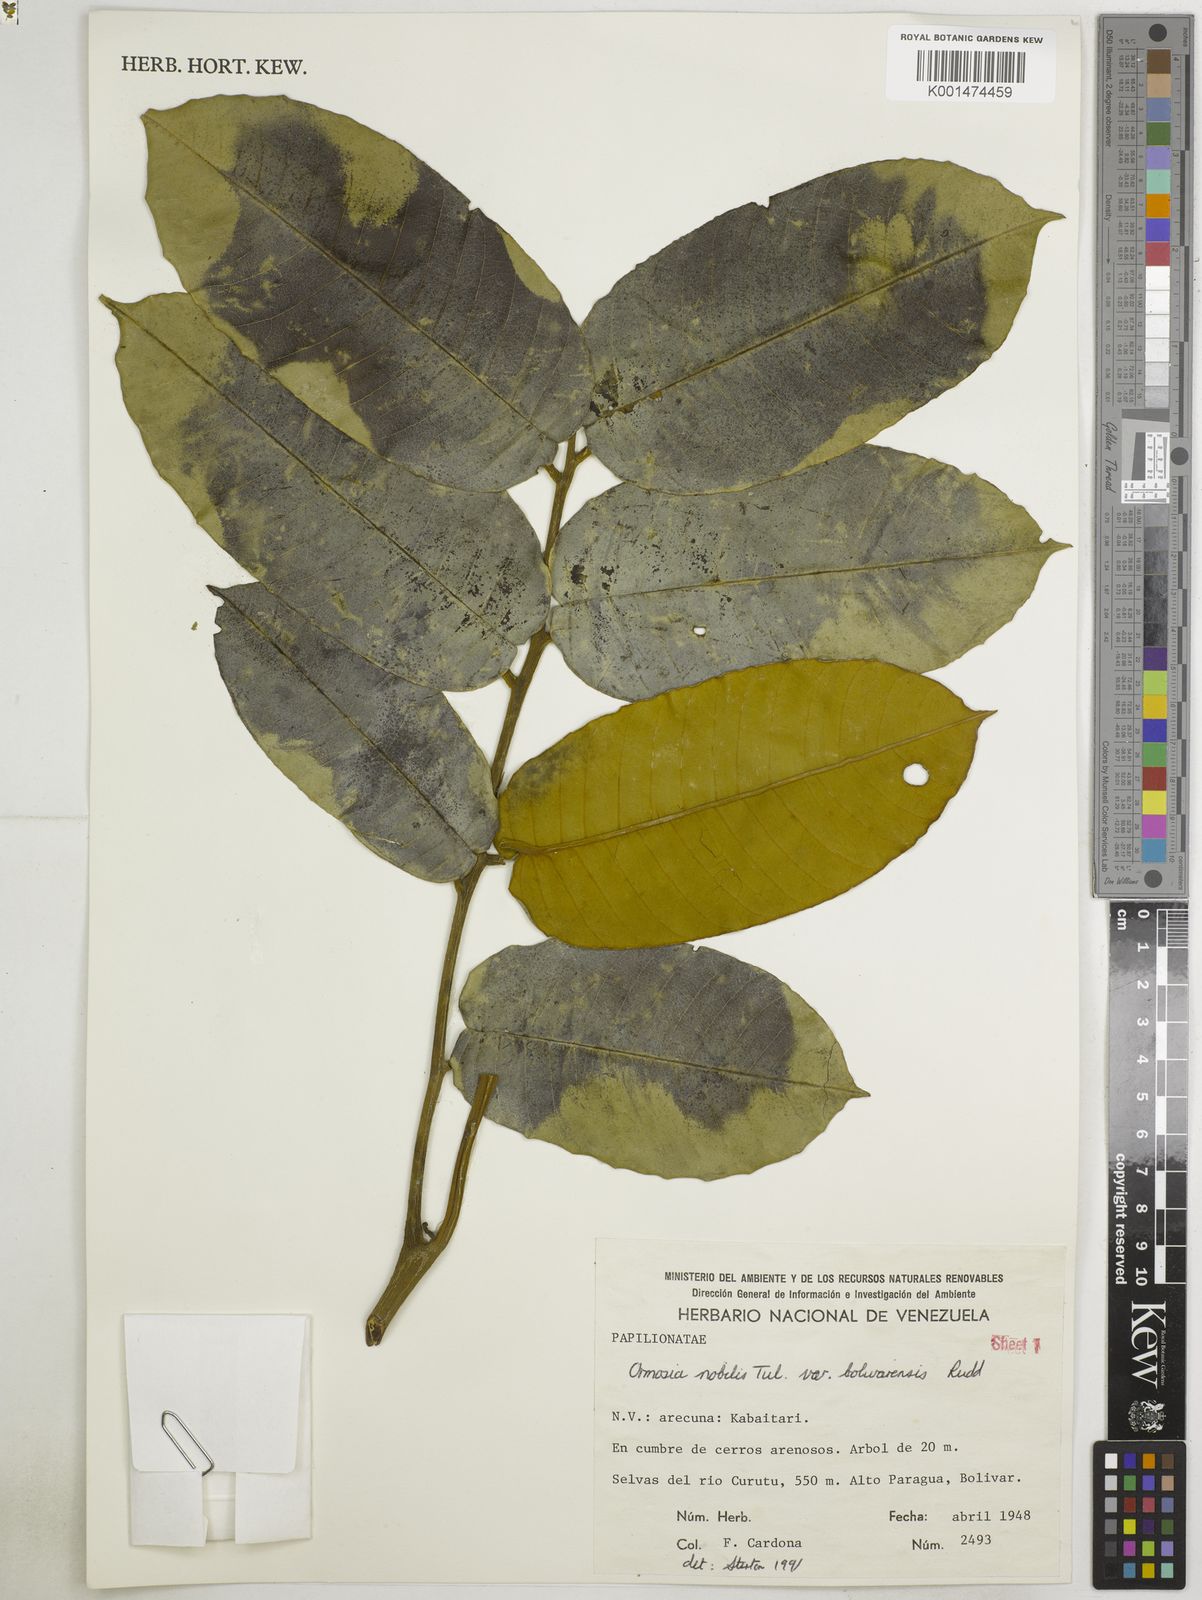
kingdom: Plantae
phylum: Tracheophyta
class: Magnoliopsida
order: Fabales
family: Fabaceae
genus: Ormosia
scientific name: Ormosia cuatrecasasii
